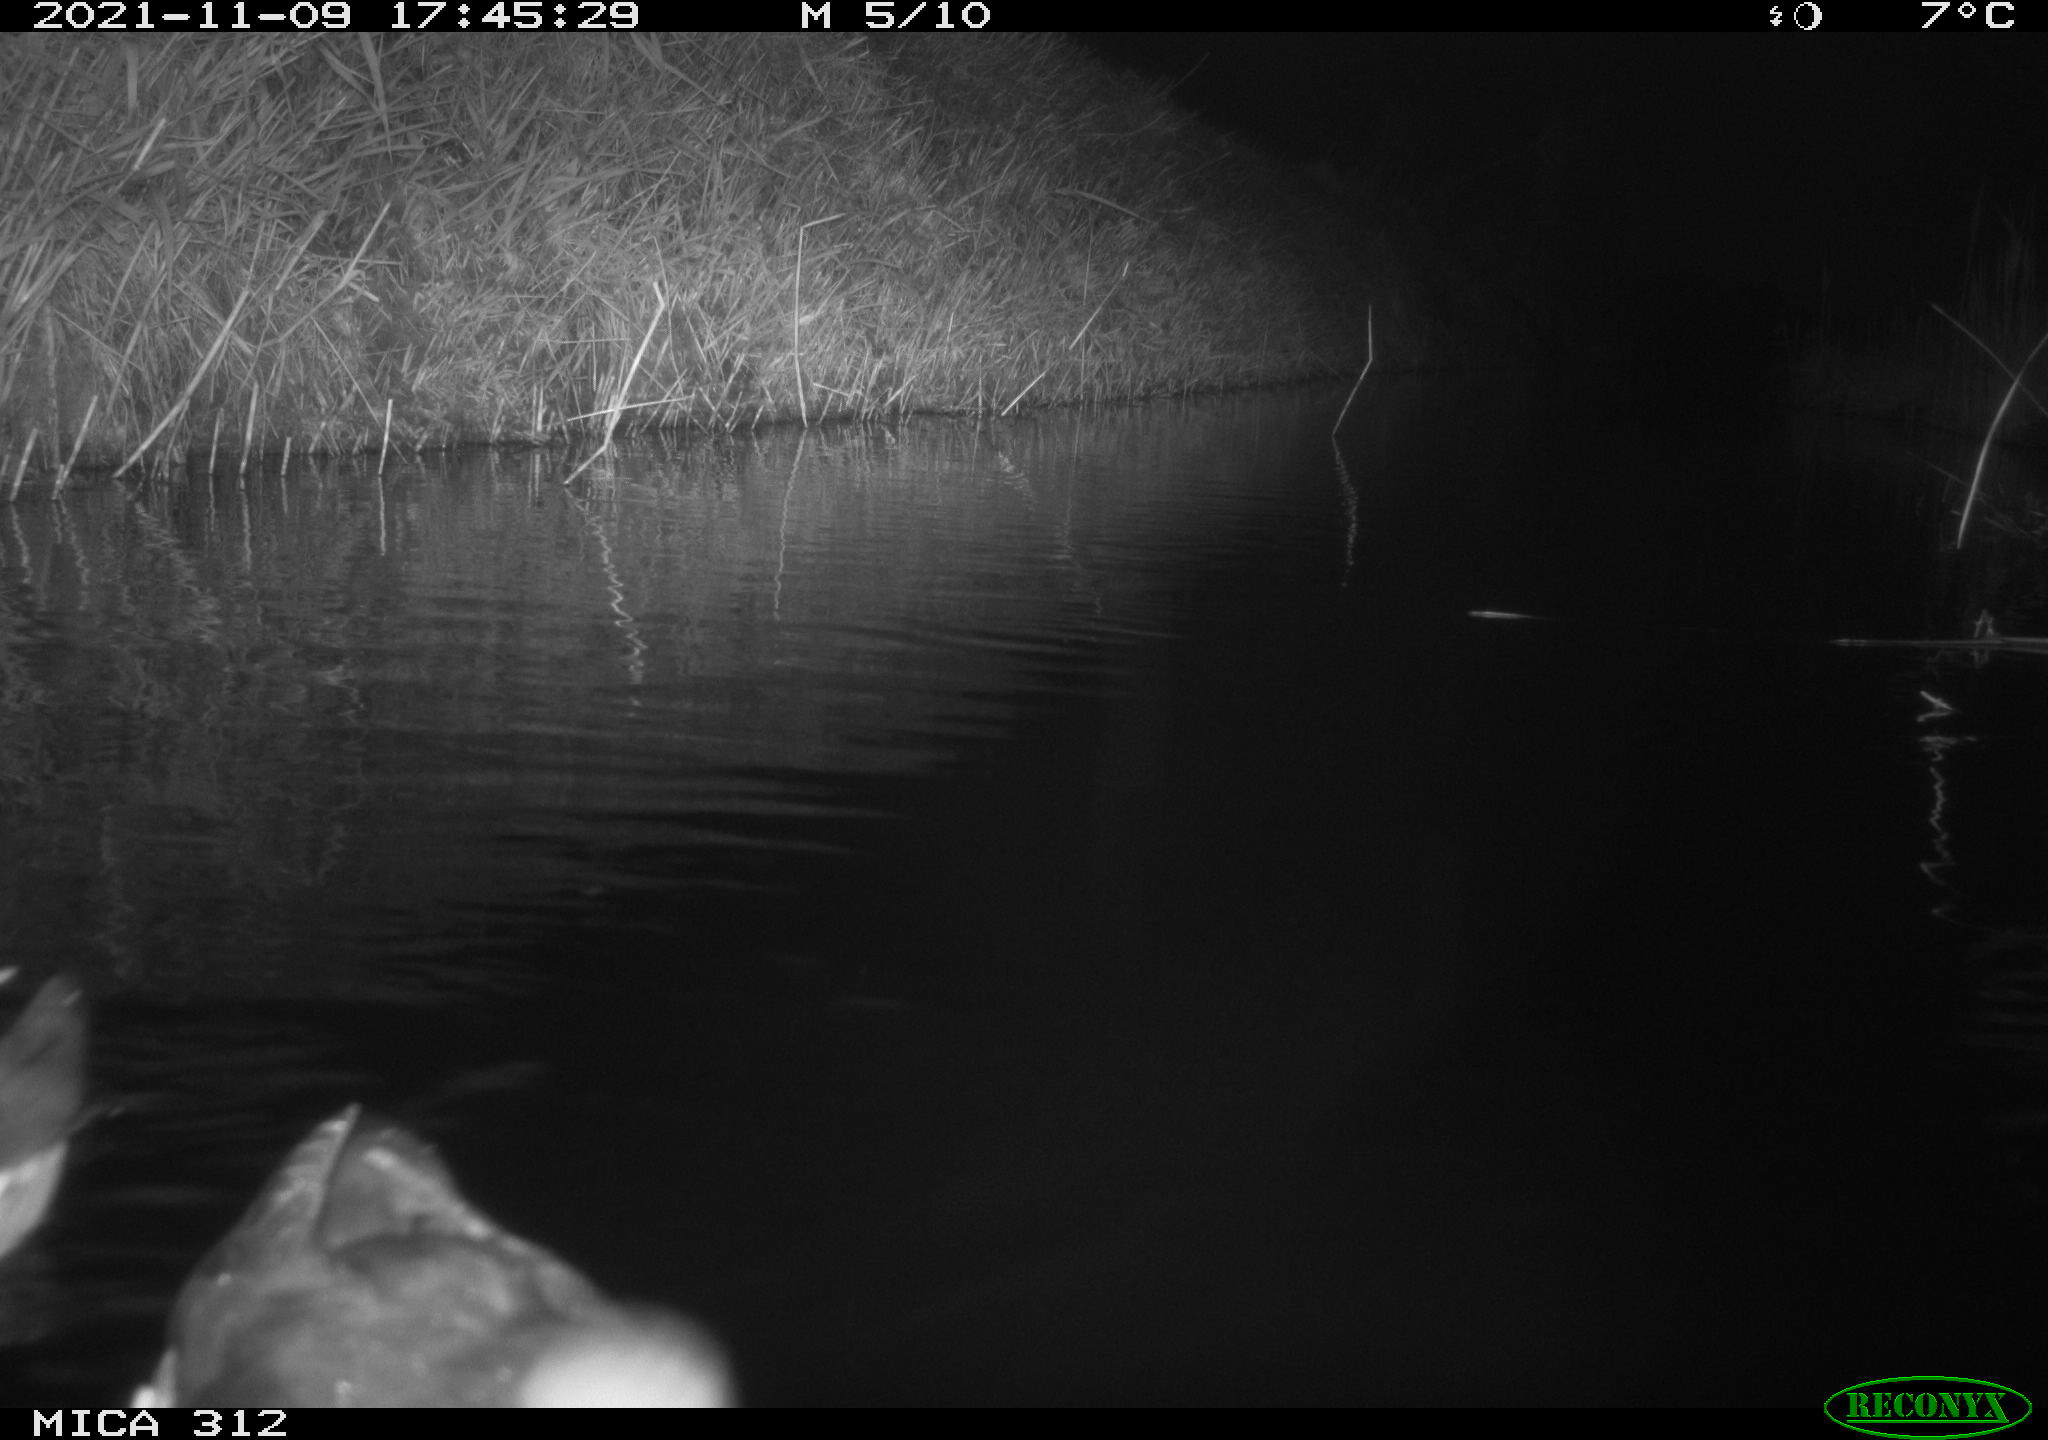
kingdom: Animalia
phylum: Chordata
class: Aves
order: Anseriformes
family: Anatidae
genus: Anas
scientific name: Anas
